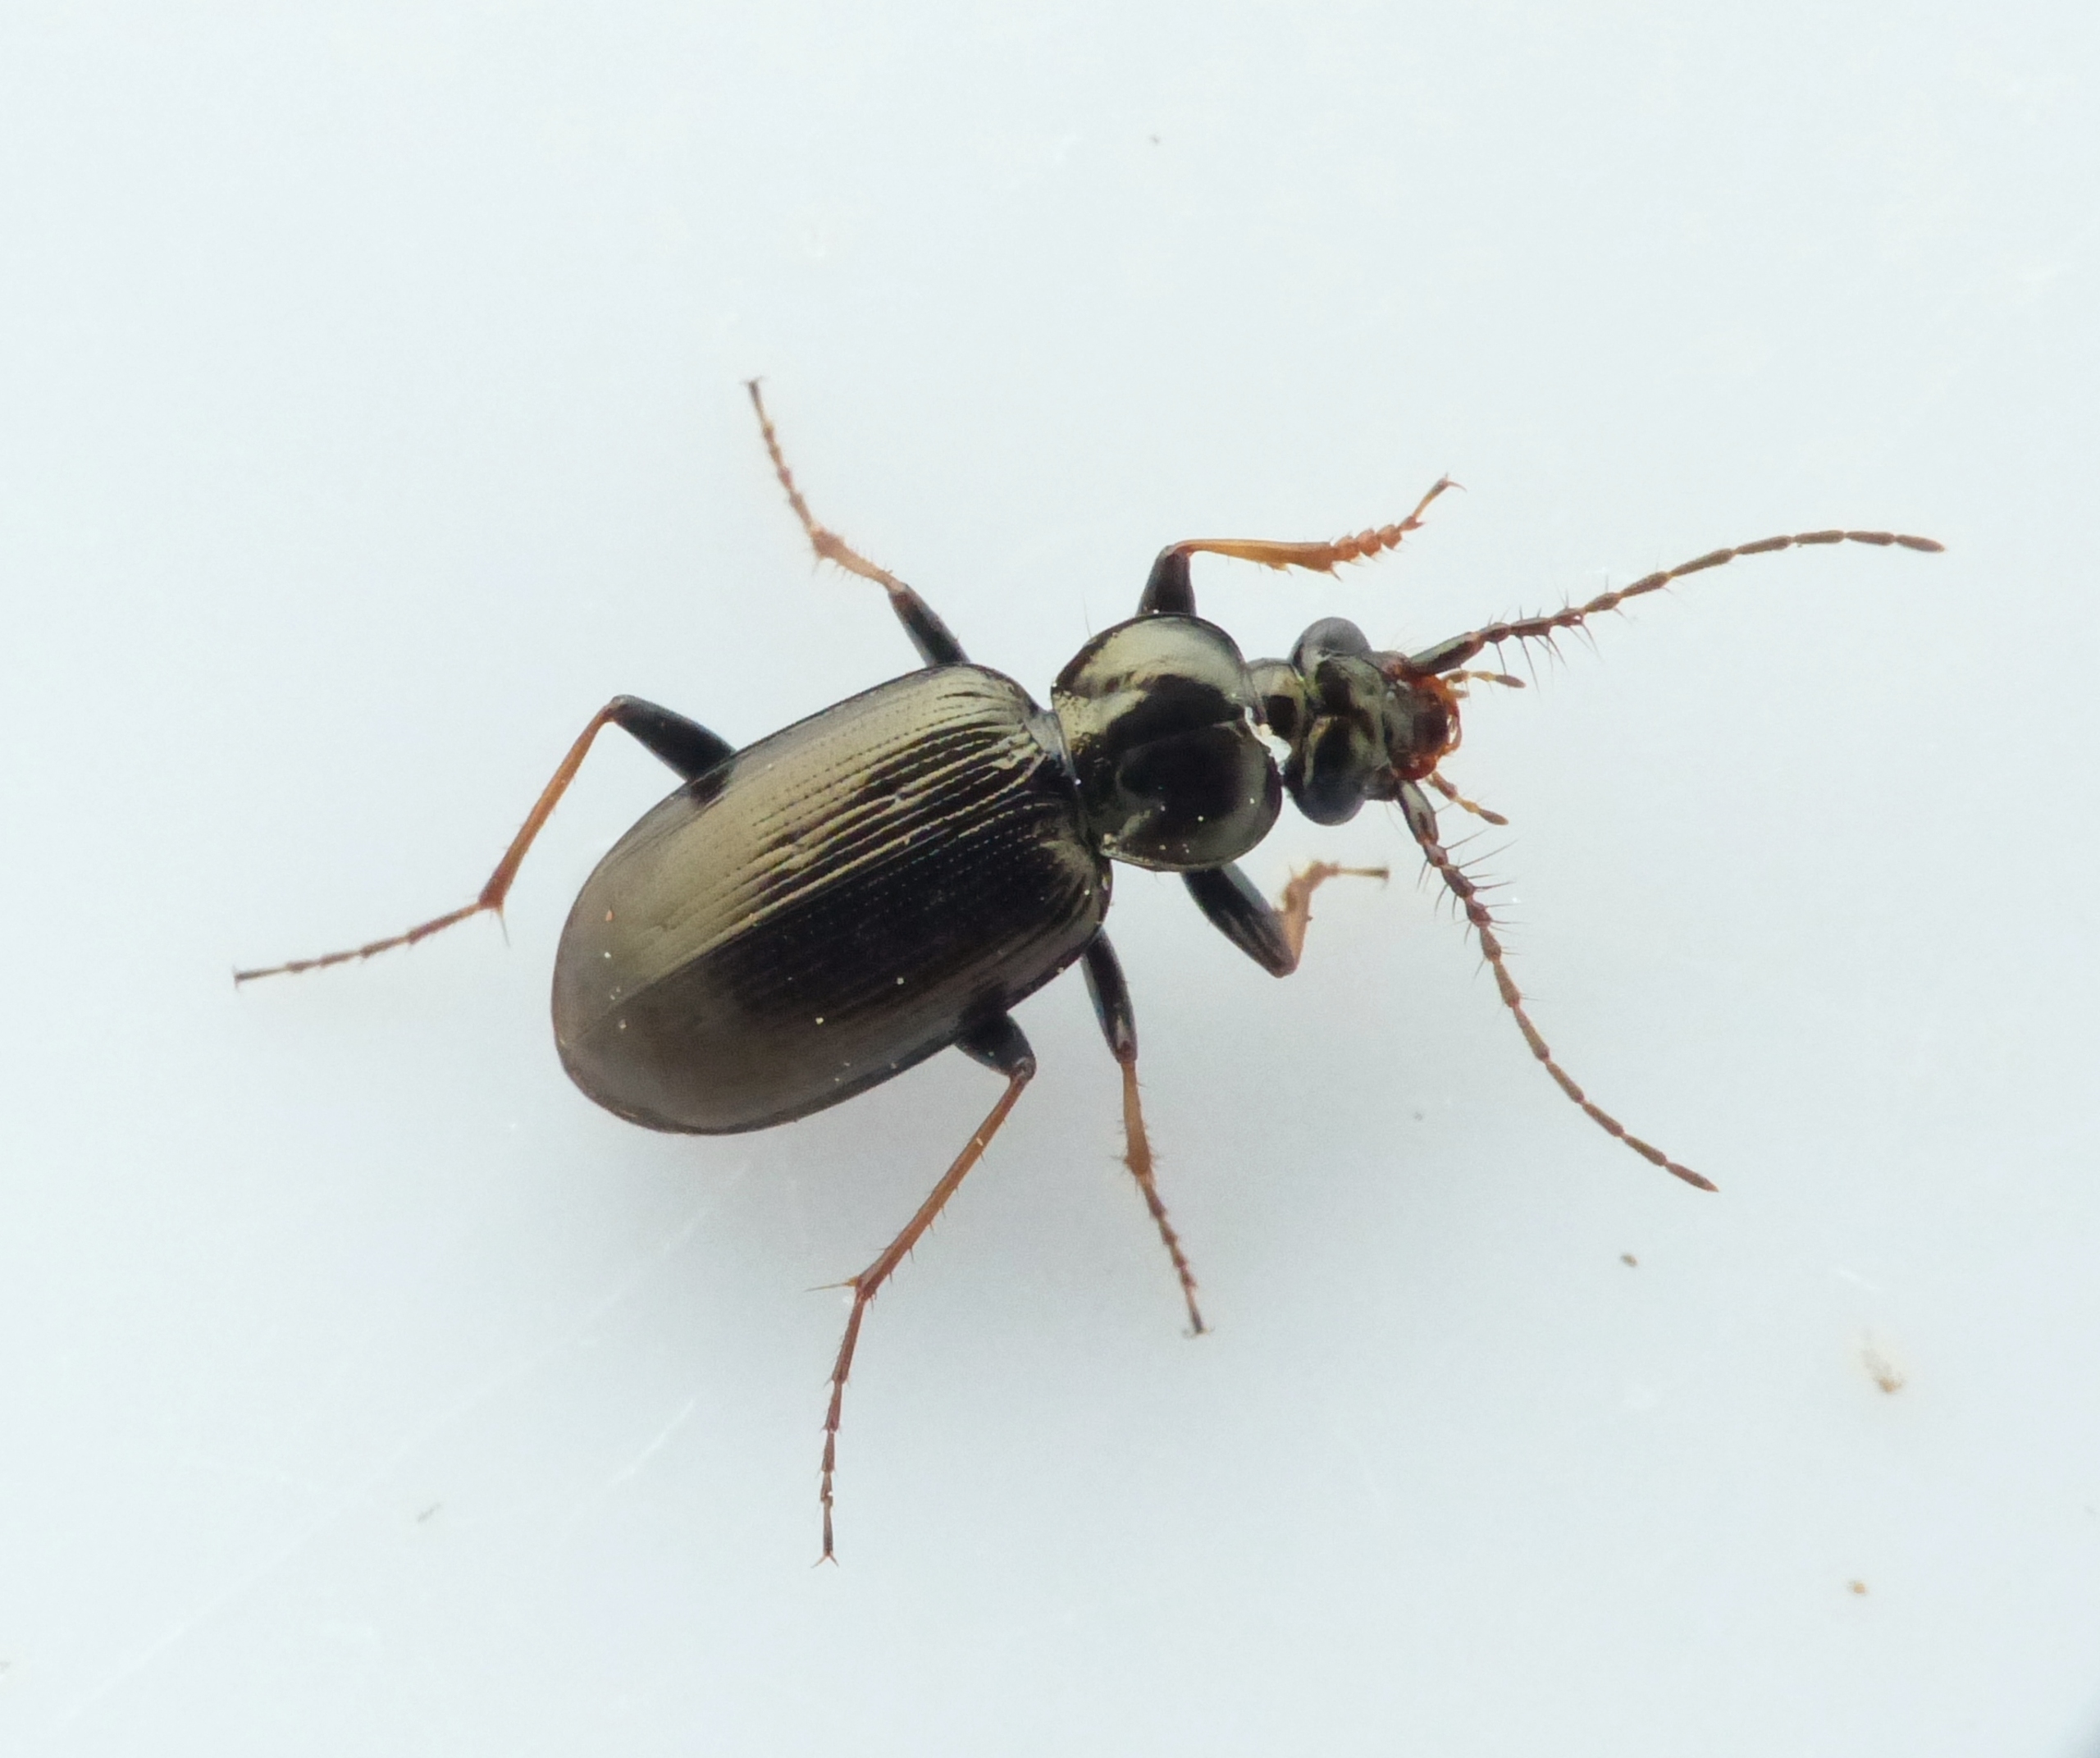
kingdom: Animalia
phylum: Arthropoda
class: Insecta
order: Coleoptera
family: Carabidae
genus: Loricera
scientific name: Loricera pilicornis
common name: Børsteløber
